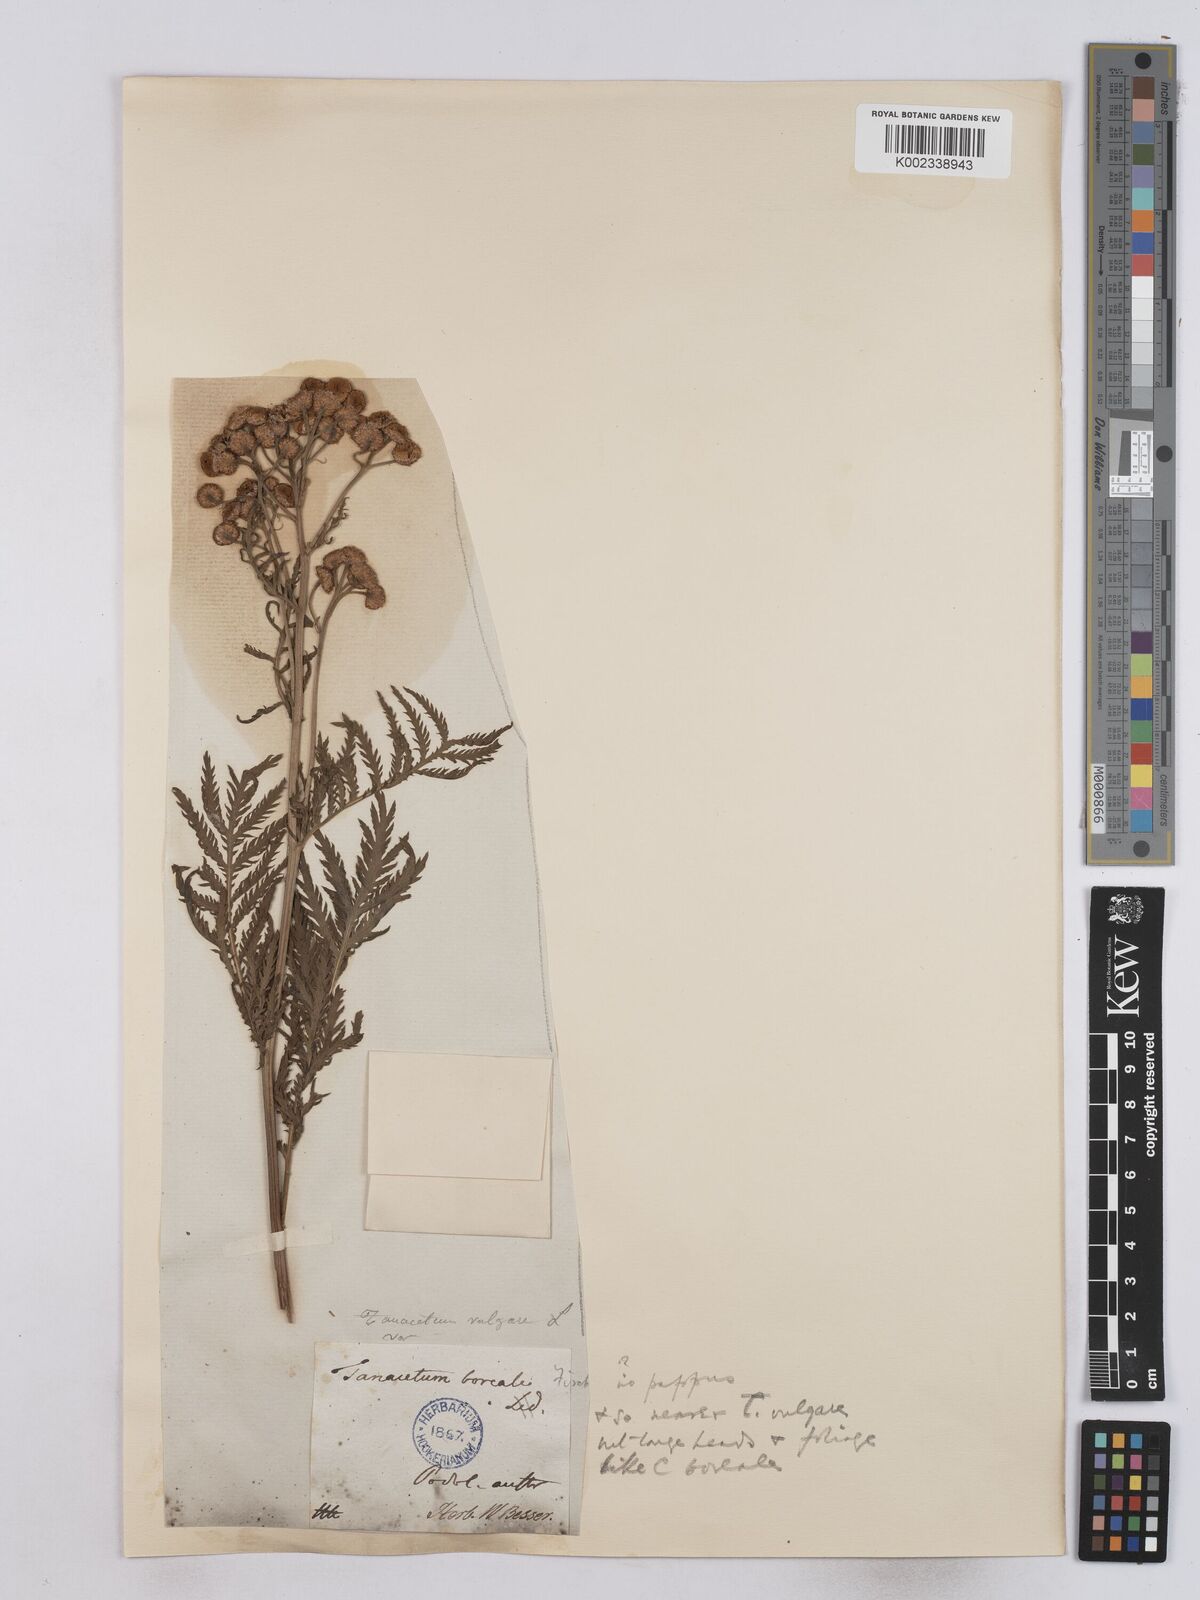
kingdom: Plantae
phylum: Tracheophyta
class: Magnoliopsida
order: Asterales
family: Asteraceae
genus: Tanacetum
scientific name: Tanacetum vulgare
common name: Common tansy
